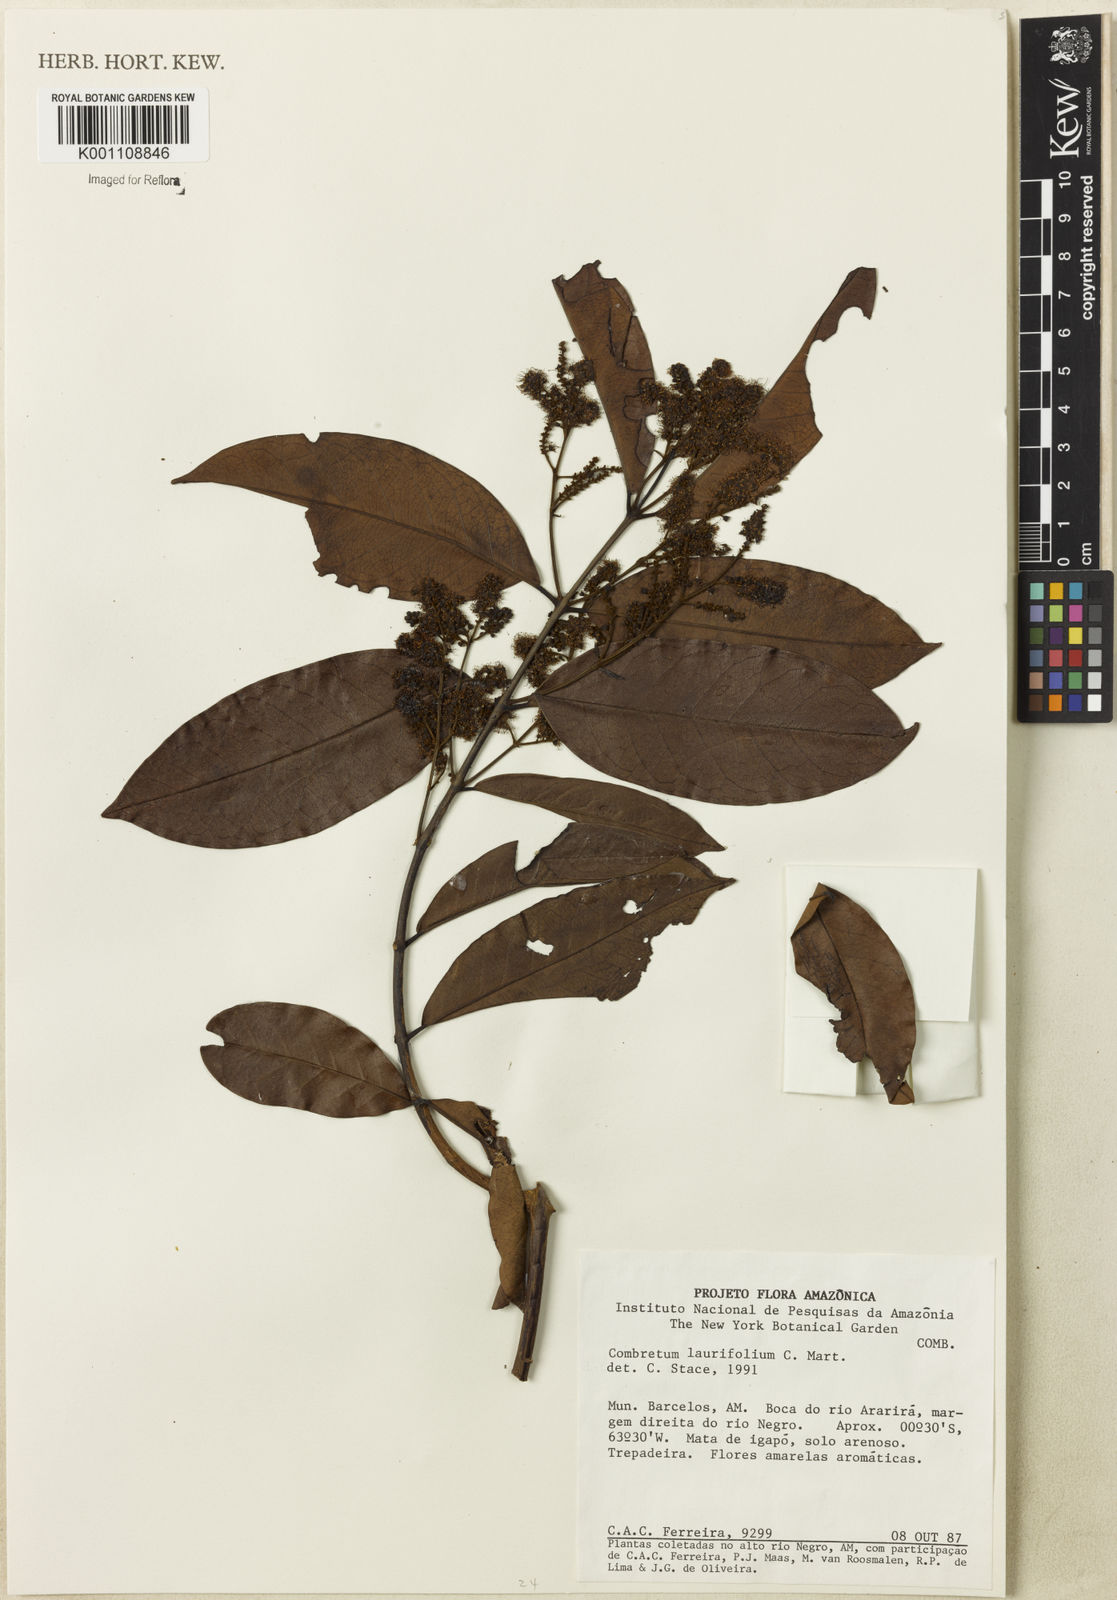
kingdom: Plantae
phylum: Tracheophyta
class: Magnoliopsida
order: Myrtales
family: Combretaceae
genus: Combretum
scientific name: Combretum
